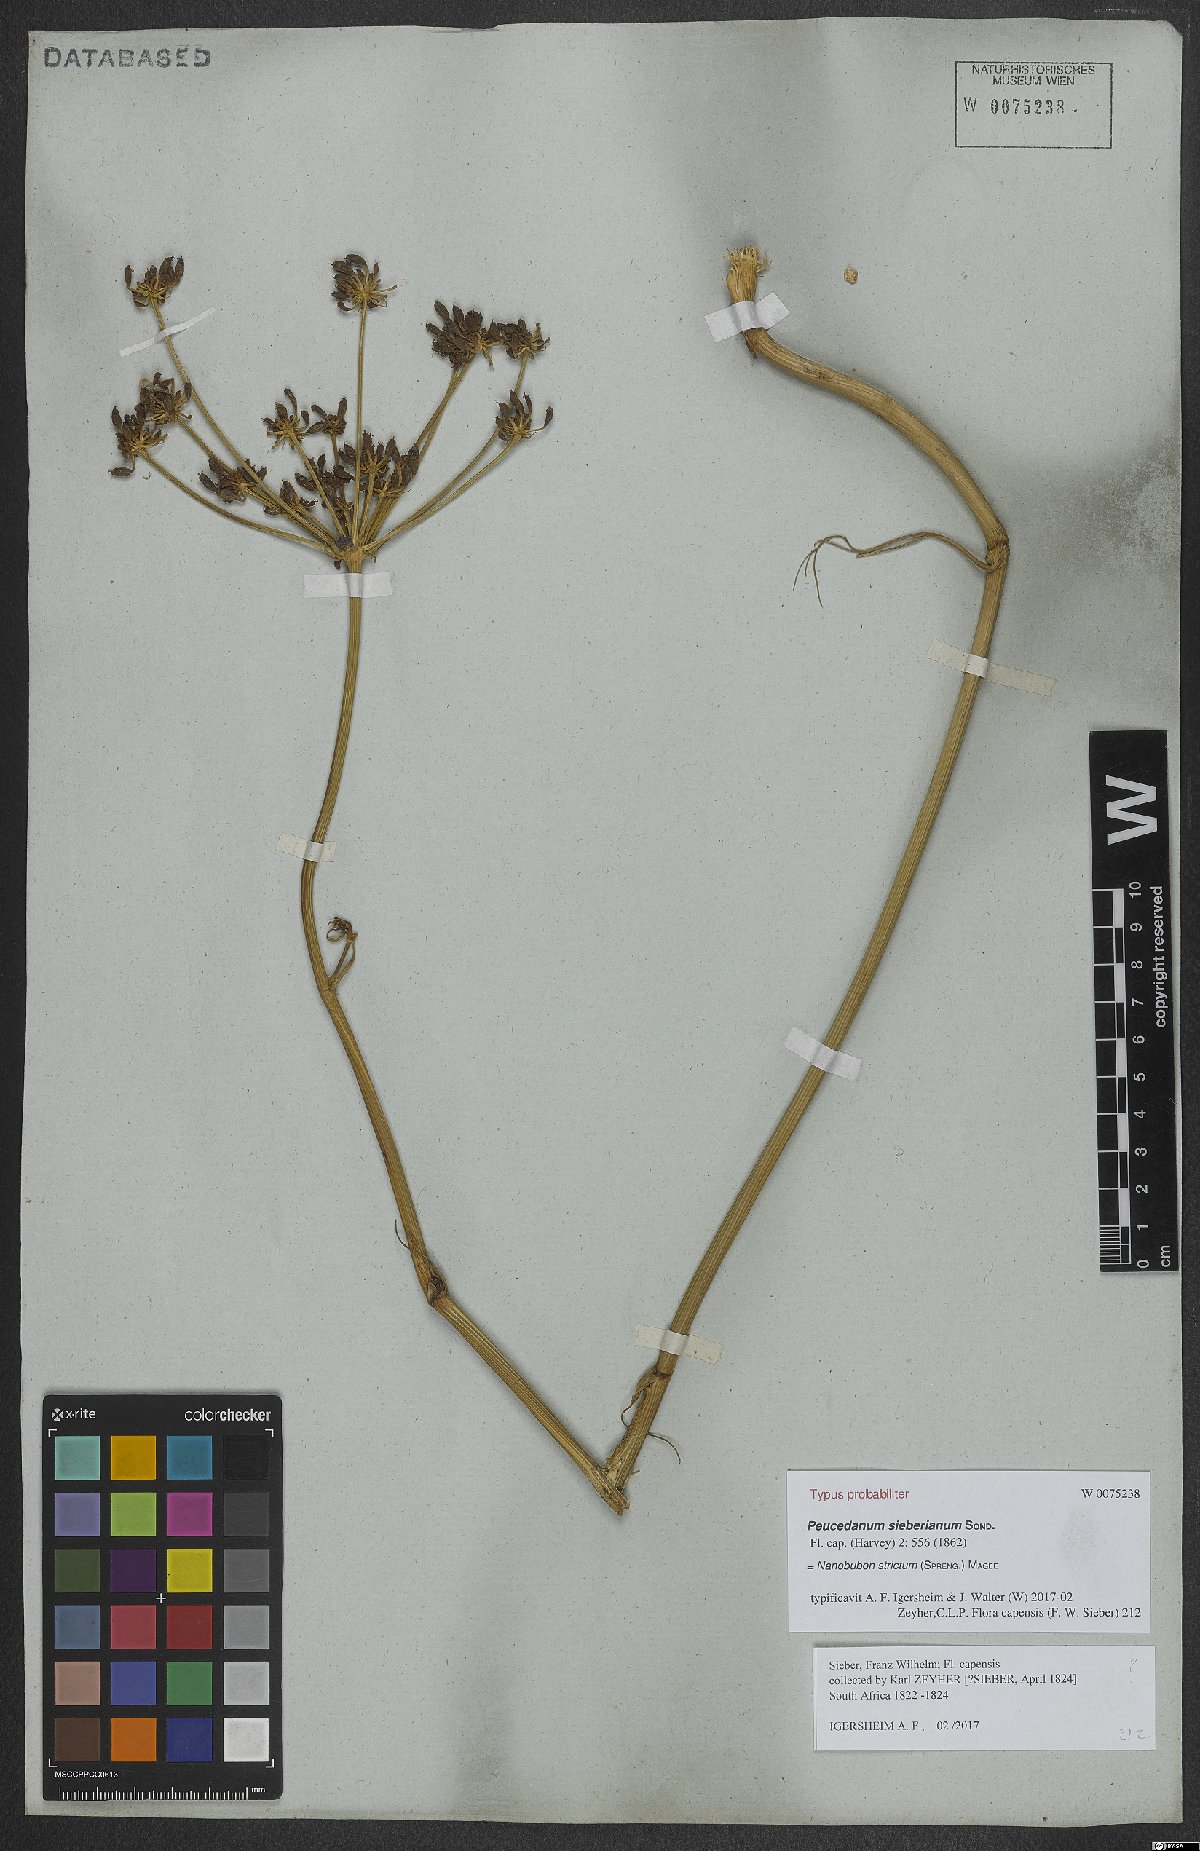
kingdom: Plantae
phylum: Tracheophyta
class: Magnoliopsida
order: Apiales
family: Apiaceae
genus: Nanobubon
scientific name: Nanobubon strictum
